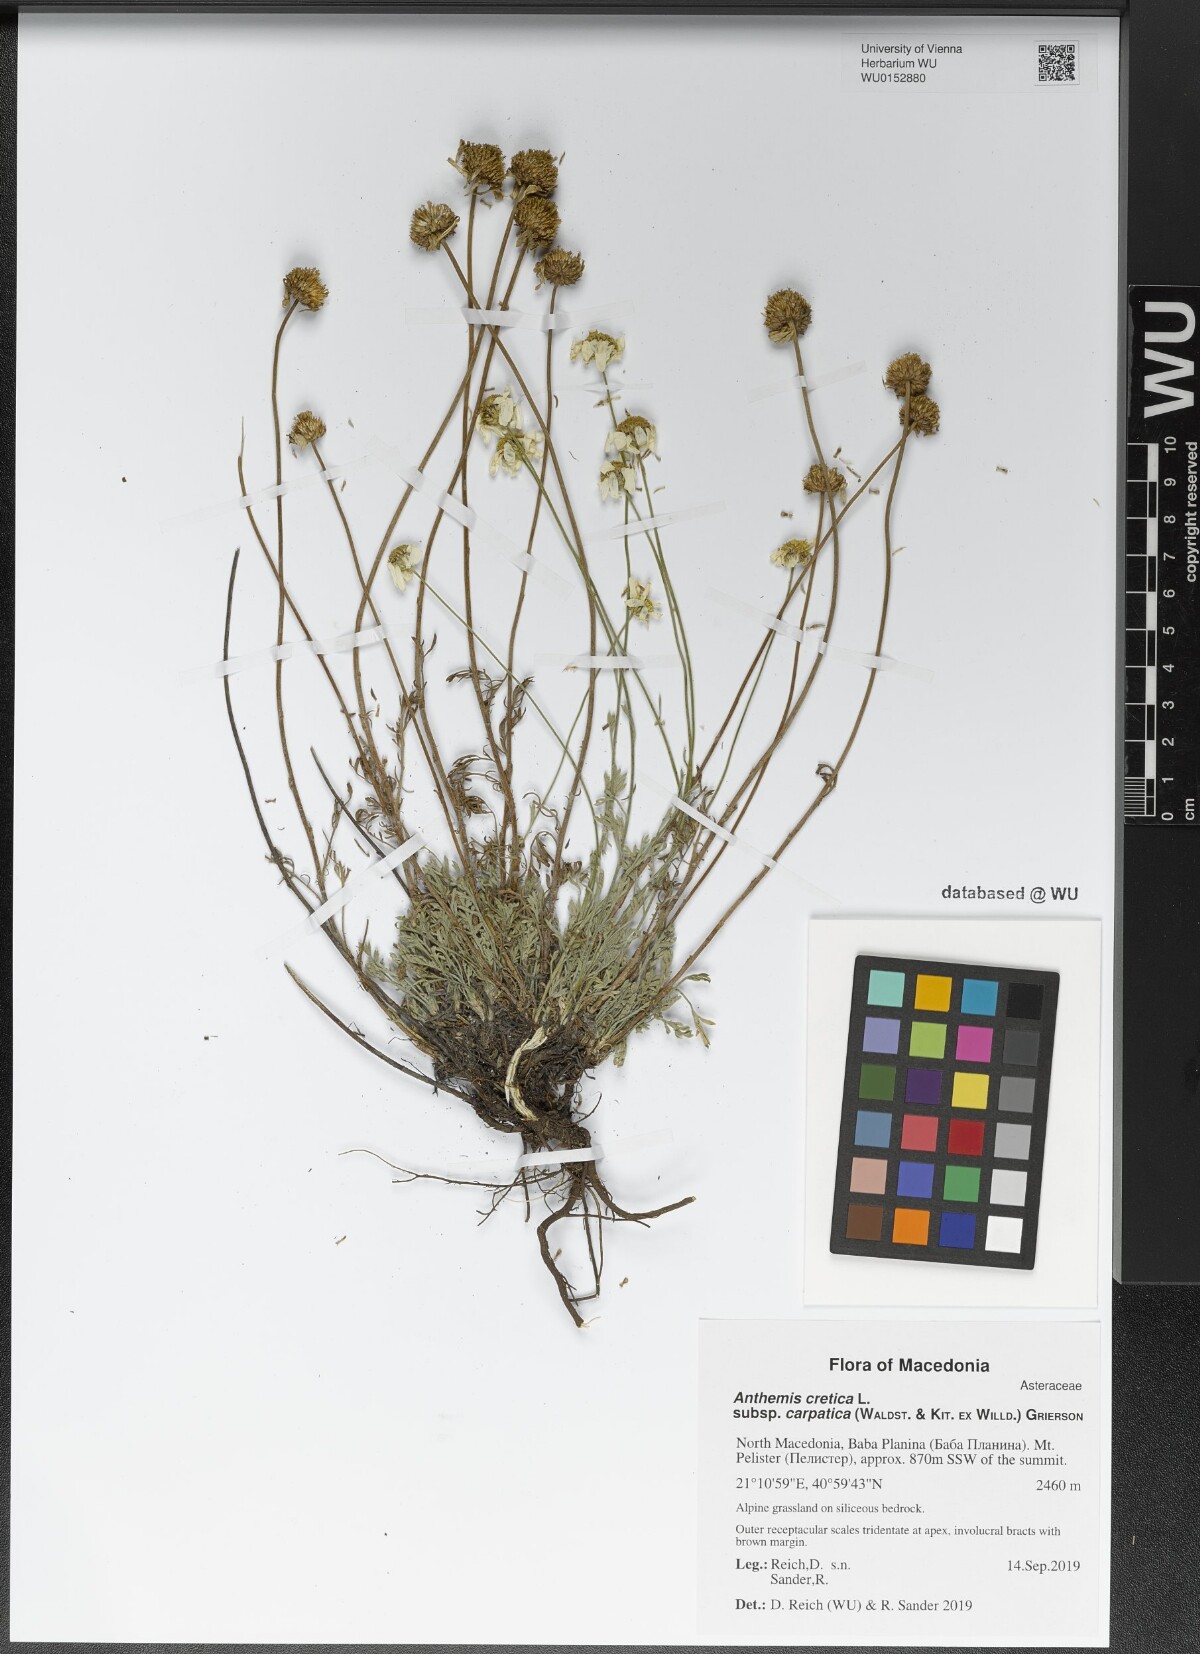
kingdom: Plantae
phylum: Tracheophyta
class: Magnoliopsida
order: Asterales
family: Asteraceae
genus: Anthemis
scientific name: Anthemis cretica
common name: Mountain dog-daisy
